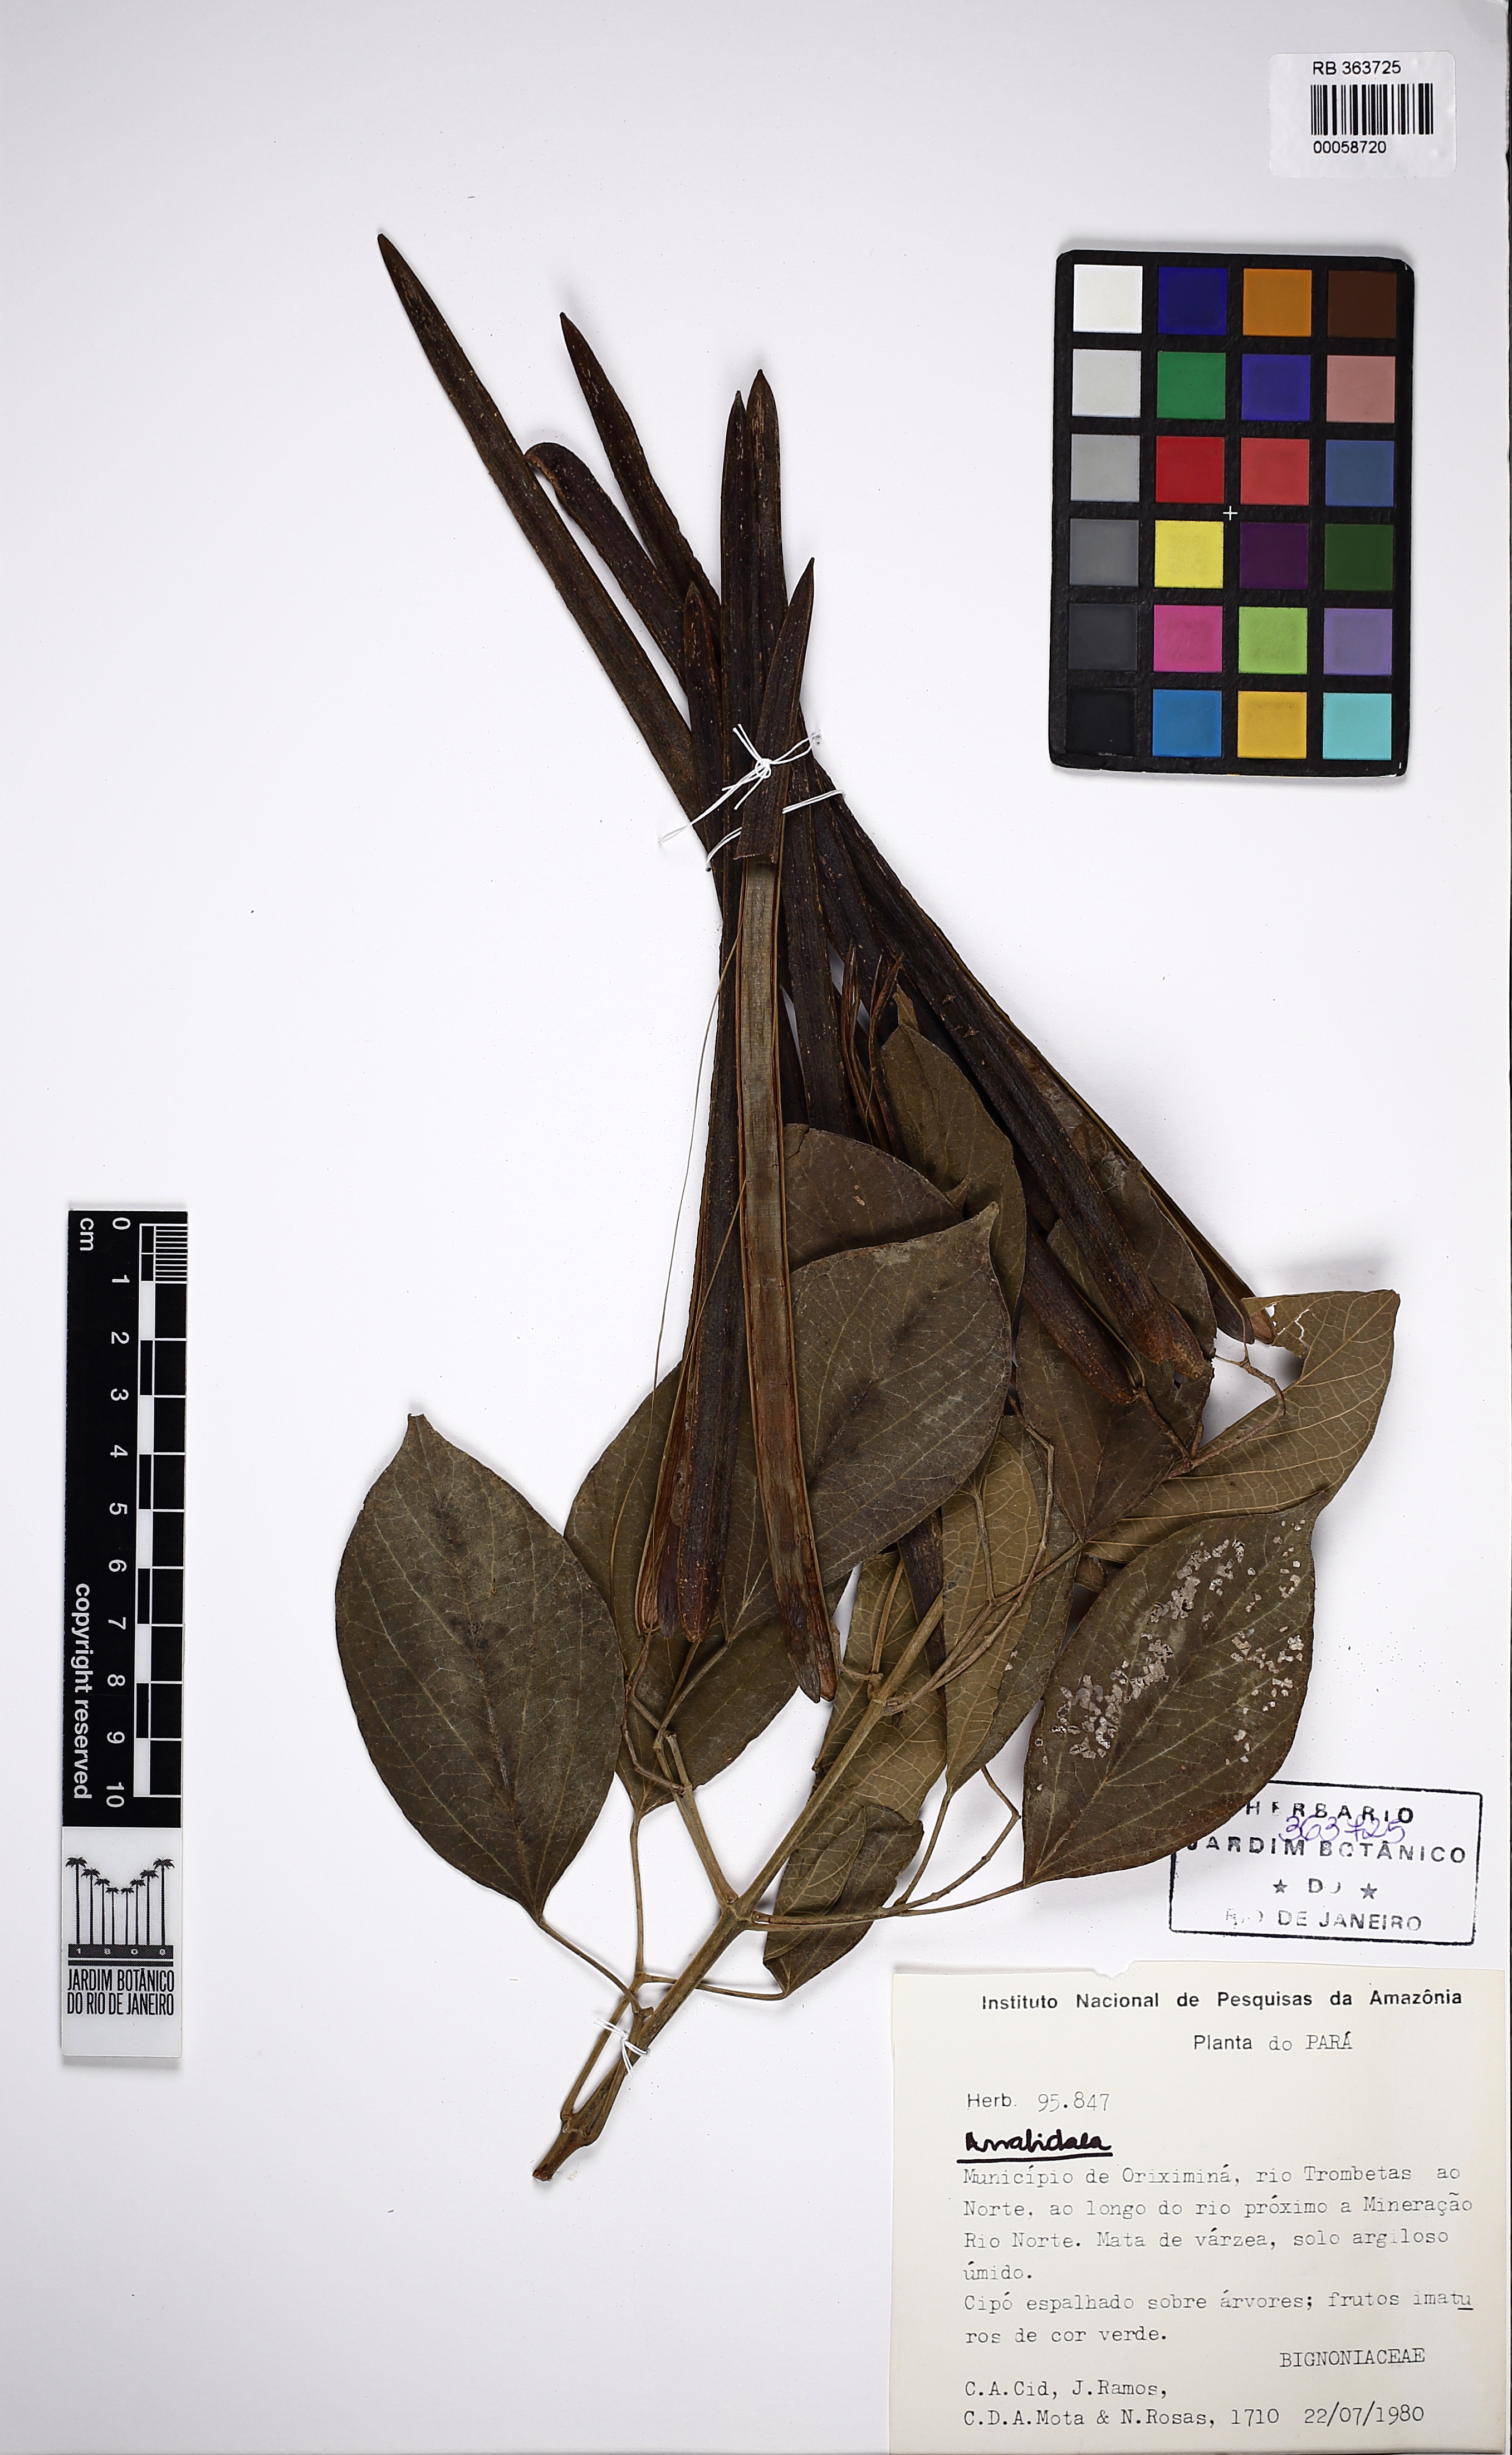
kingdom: Plantae
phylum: Tracheophyta
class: Magnoliopsida
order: Lamiales
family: Bignoniaceae
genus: Tynanthus
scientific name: Tynanthus polyanthus
